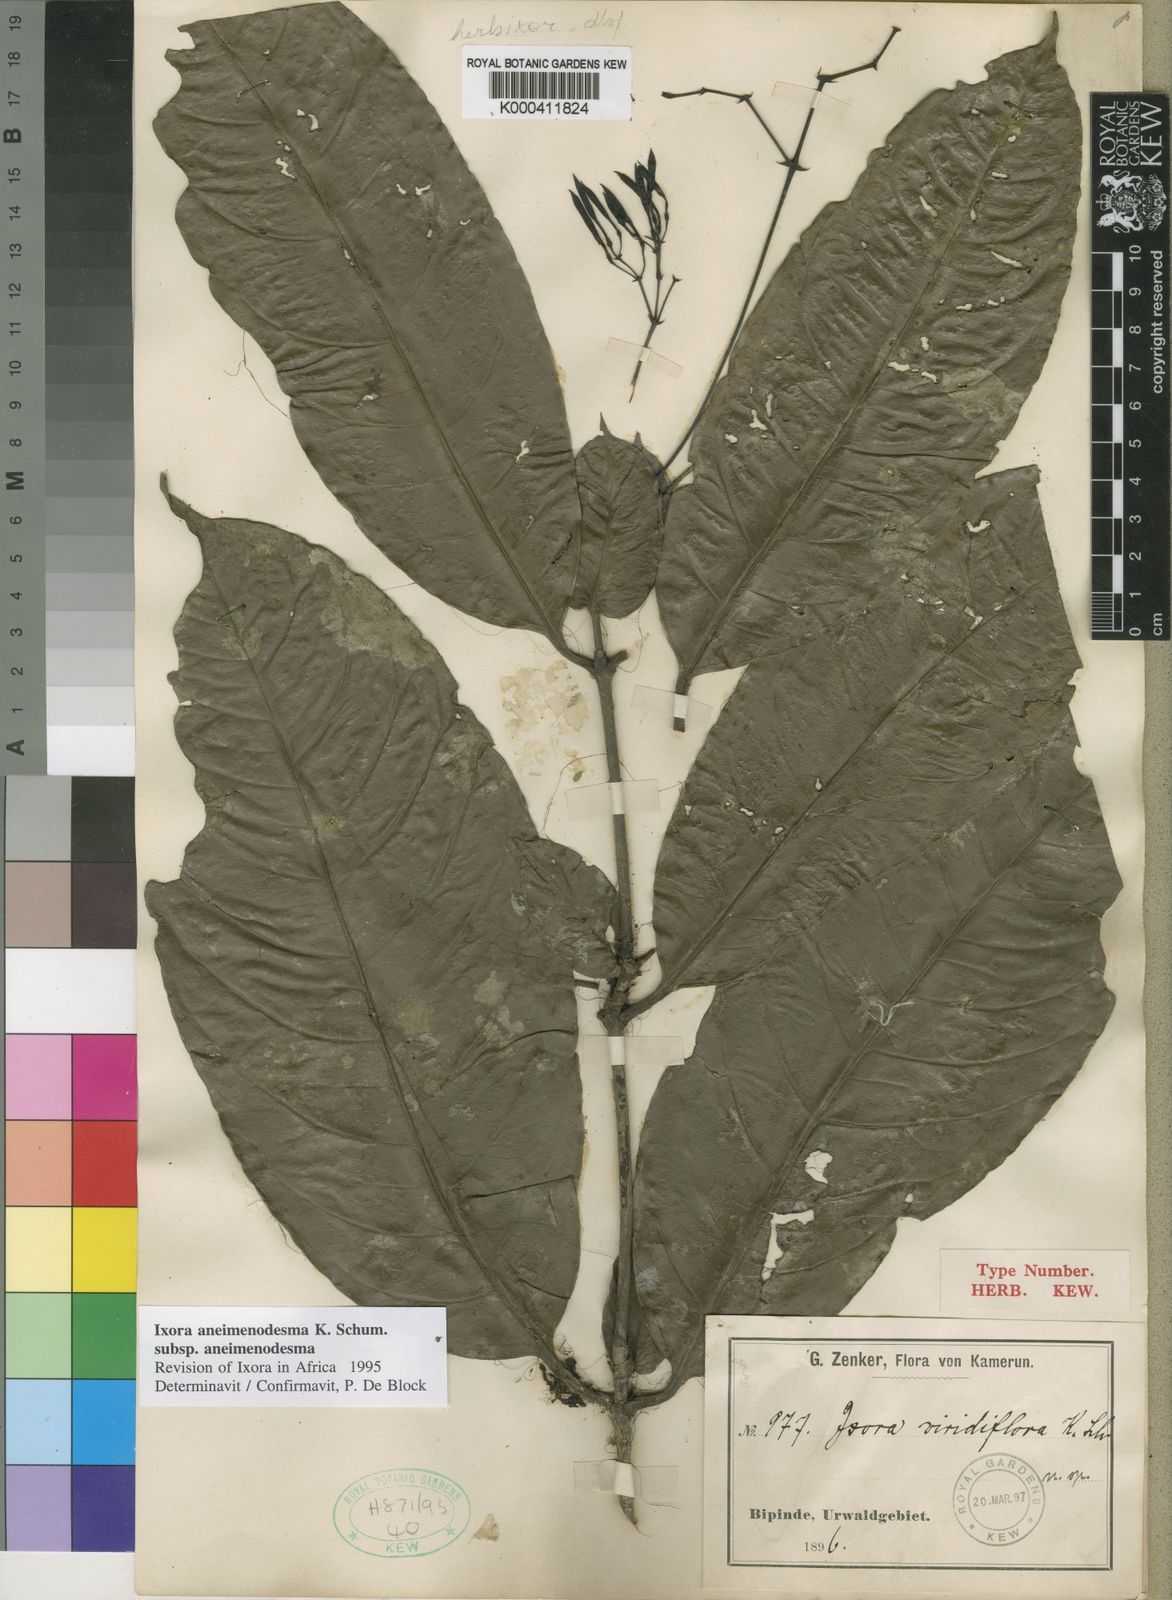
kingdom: Plantae
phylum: Tracheophyta
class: Magnoliopsida
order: Gentianales
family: Rubiaceae
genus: Ixora
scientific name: Ixora aneimenodesma
